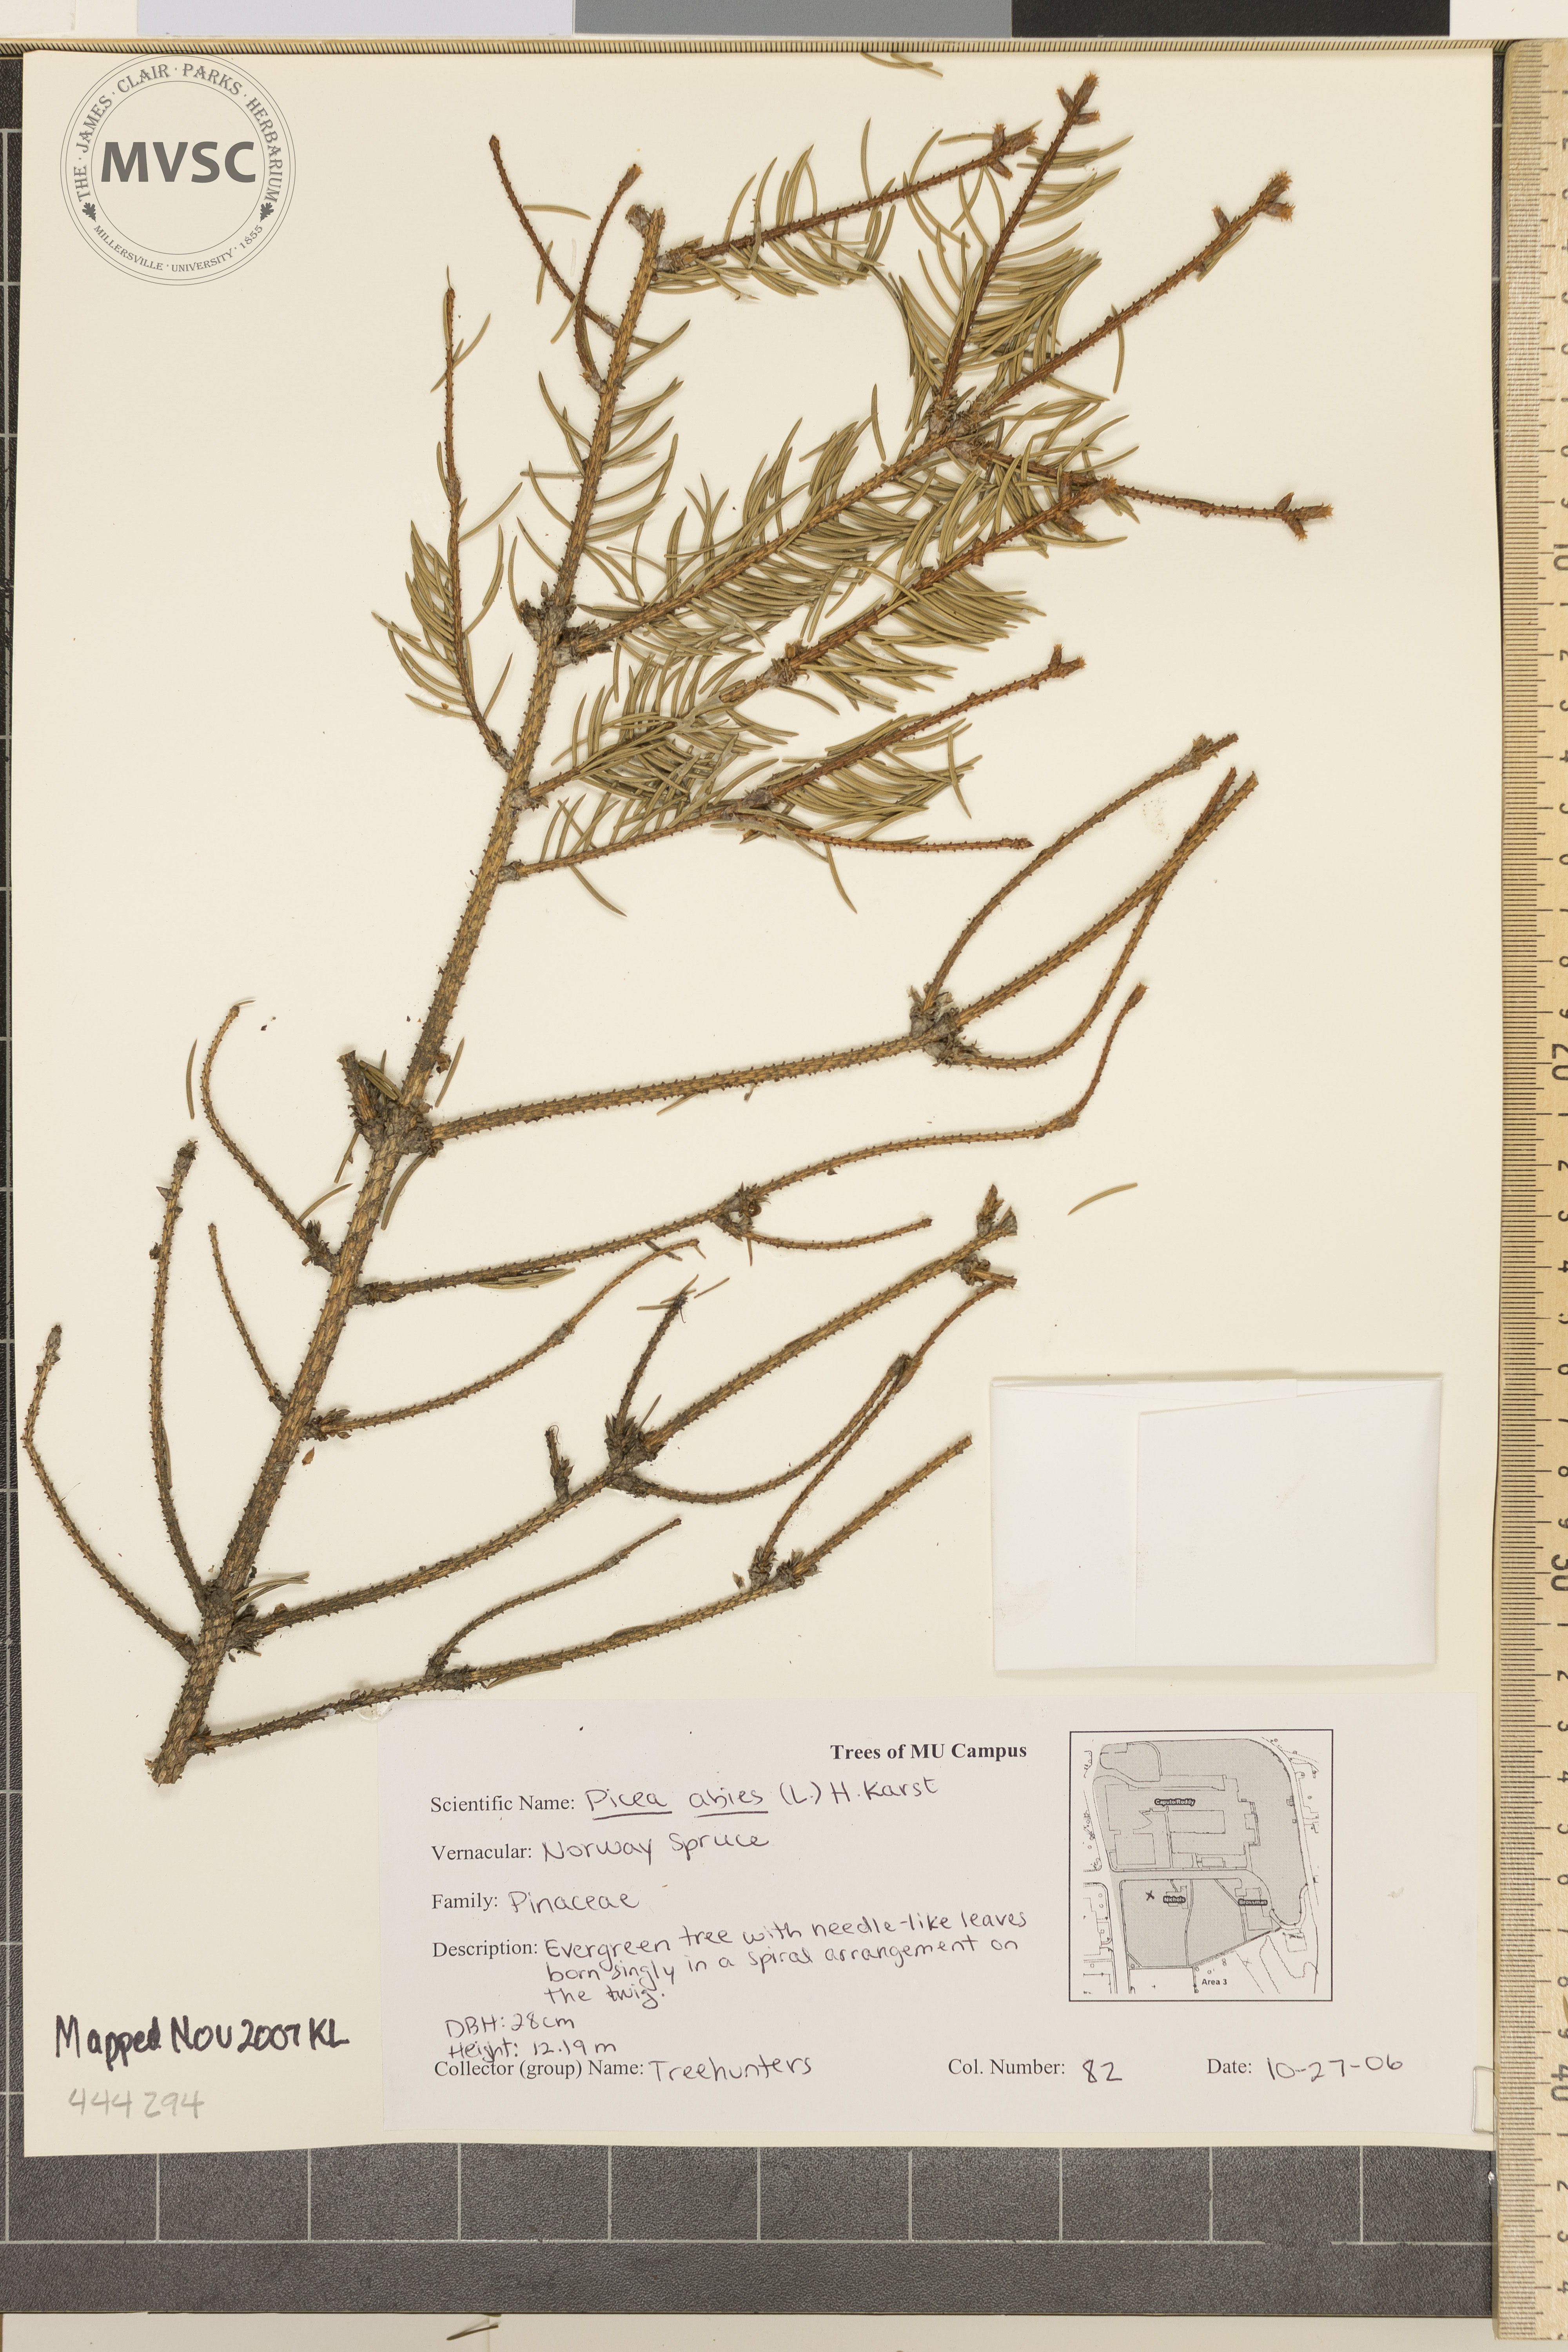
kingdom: Plantae
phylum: Tracheophyta
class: Pinopsida
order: Pinales
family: Pinaceae
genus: Picea
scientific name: Picea abies
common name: Norway Spruce
